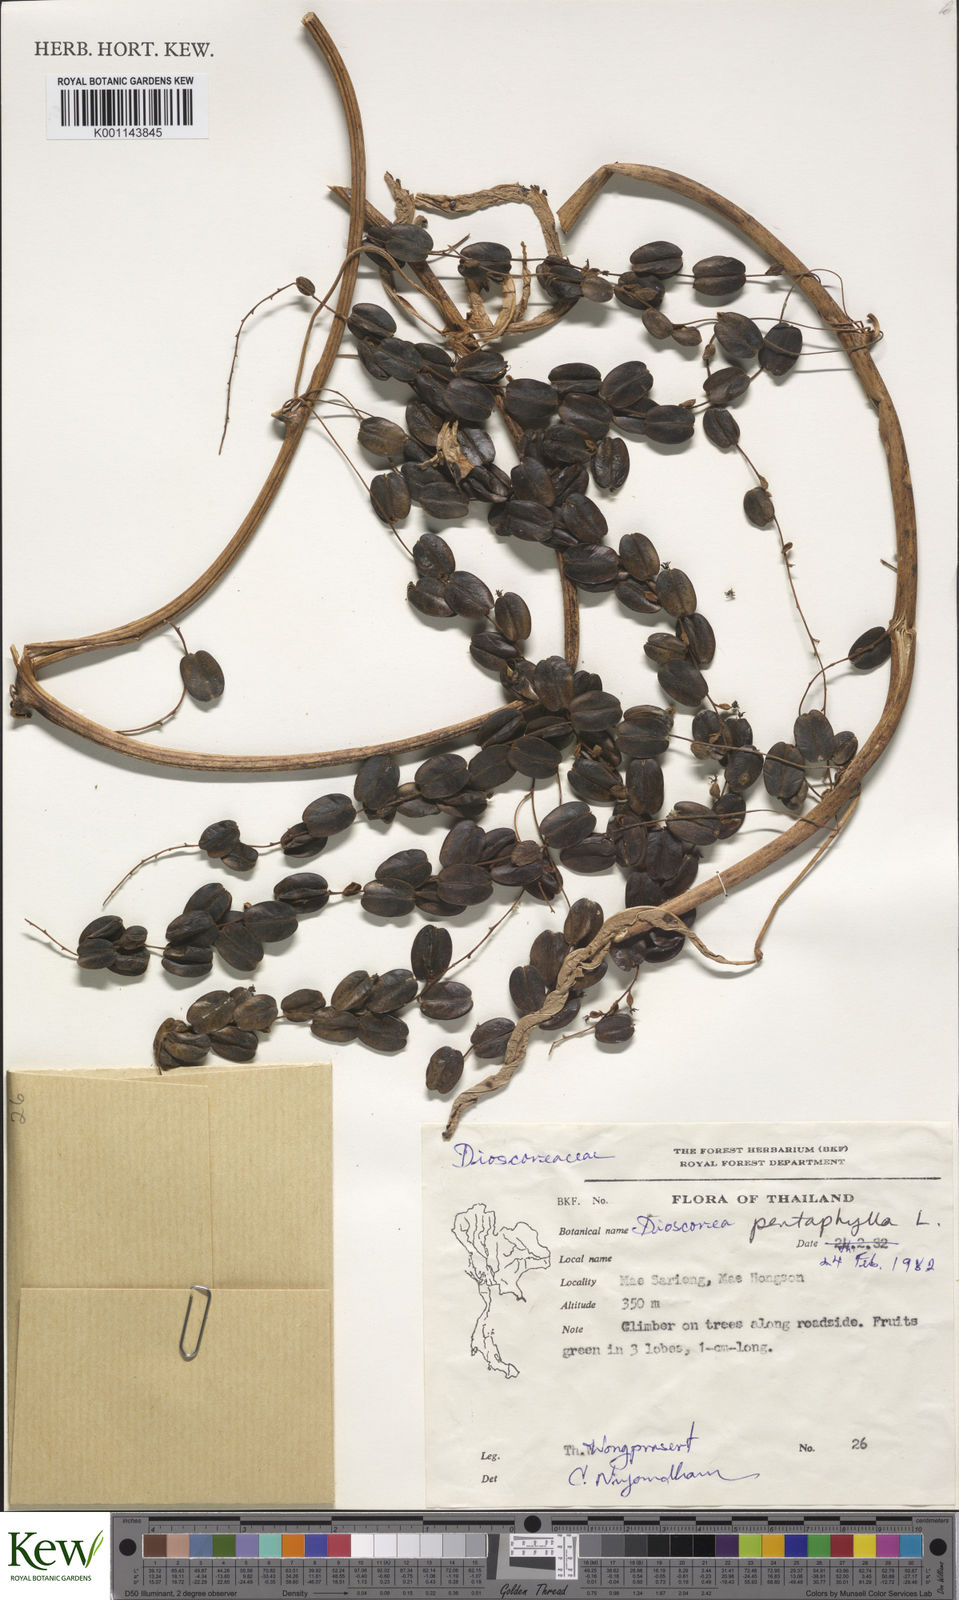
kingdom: Plantae
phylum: Tracheophyta
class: Liliopsida
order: Dioscoreales
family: Dioscoreaceae
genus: Dioscorea
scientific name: Dioscorea pentaphylla
